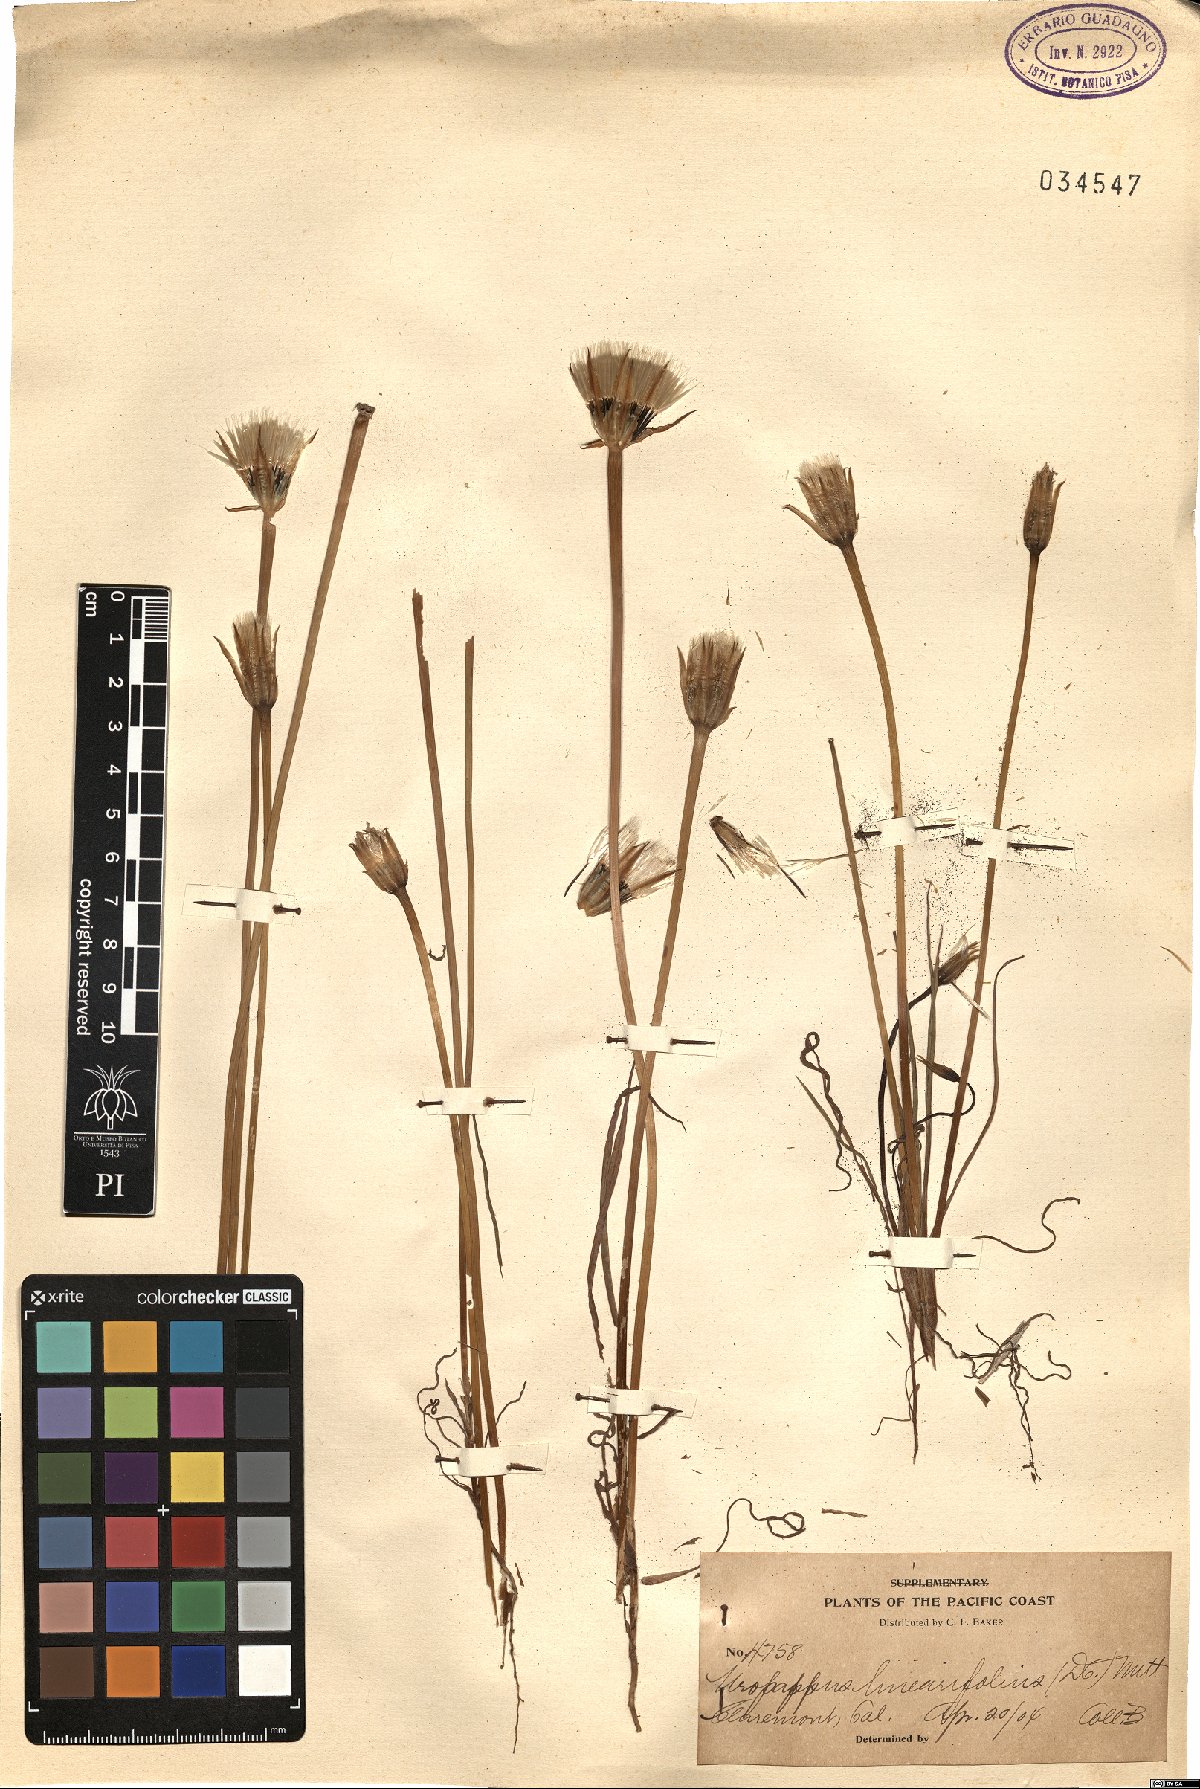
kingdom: Plantae
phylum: Tracheophyta
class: Magnoliopsida
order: Asterales
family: Asteraceae
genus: Microseris
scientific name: Microseris lindleyi
